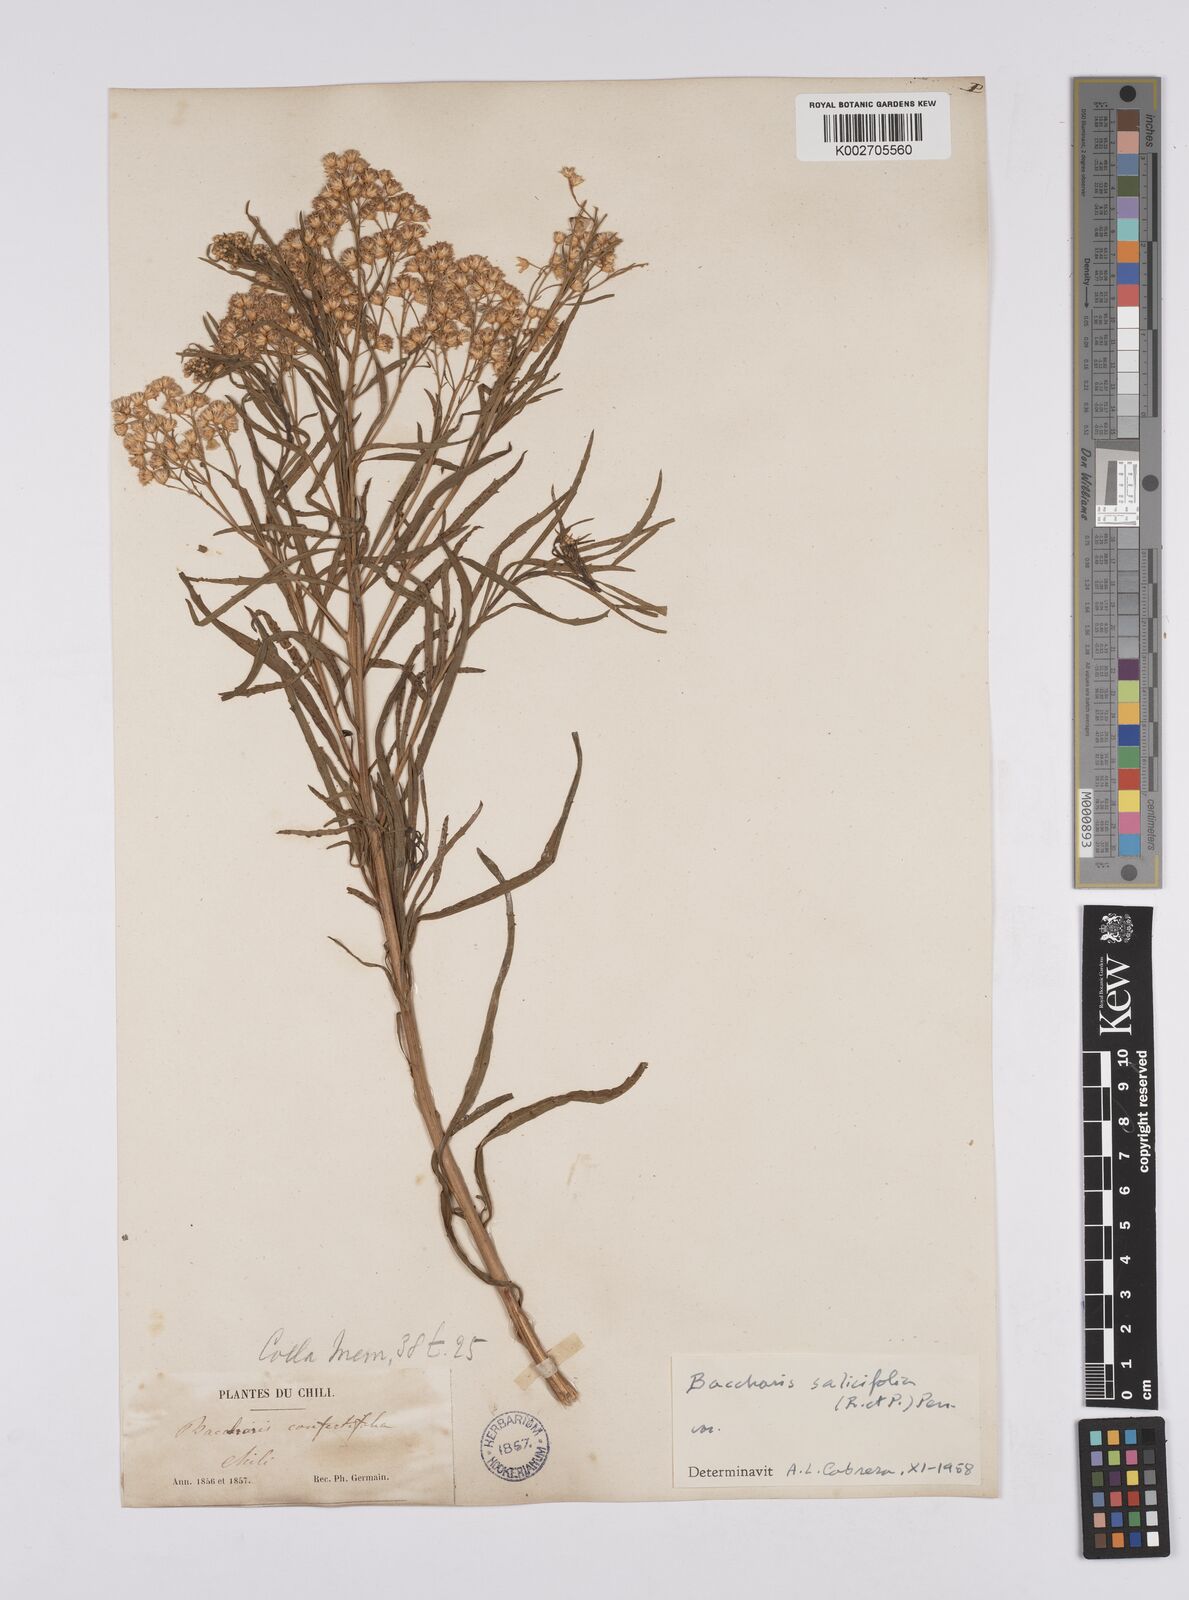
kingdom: Plantae
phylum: Tracheophyta
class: Magnoliopsida
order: Asterales
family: Asteraceae
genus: Baccharis
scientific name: Baccharis salicifolia
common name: Sticky baccharis
